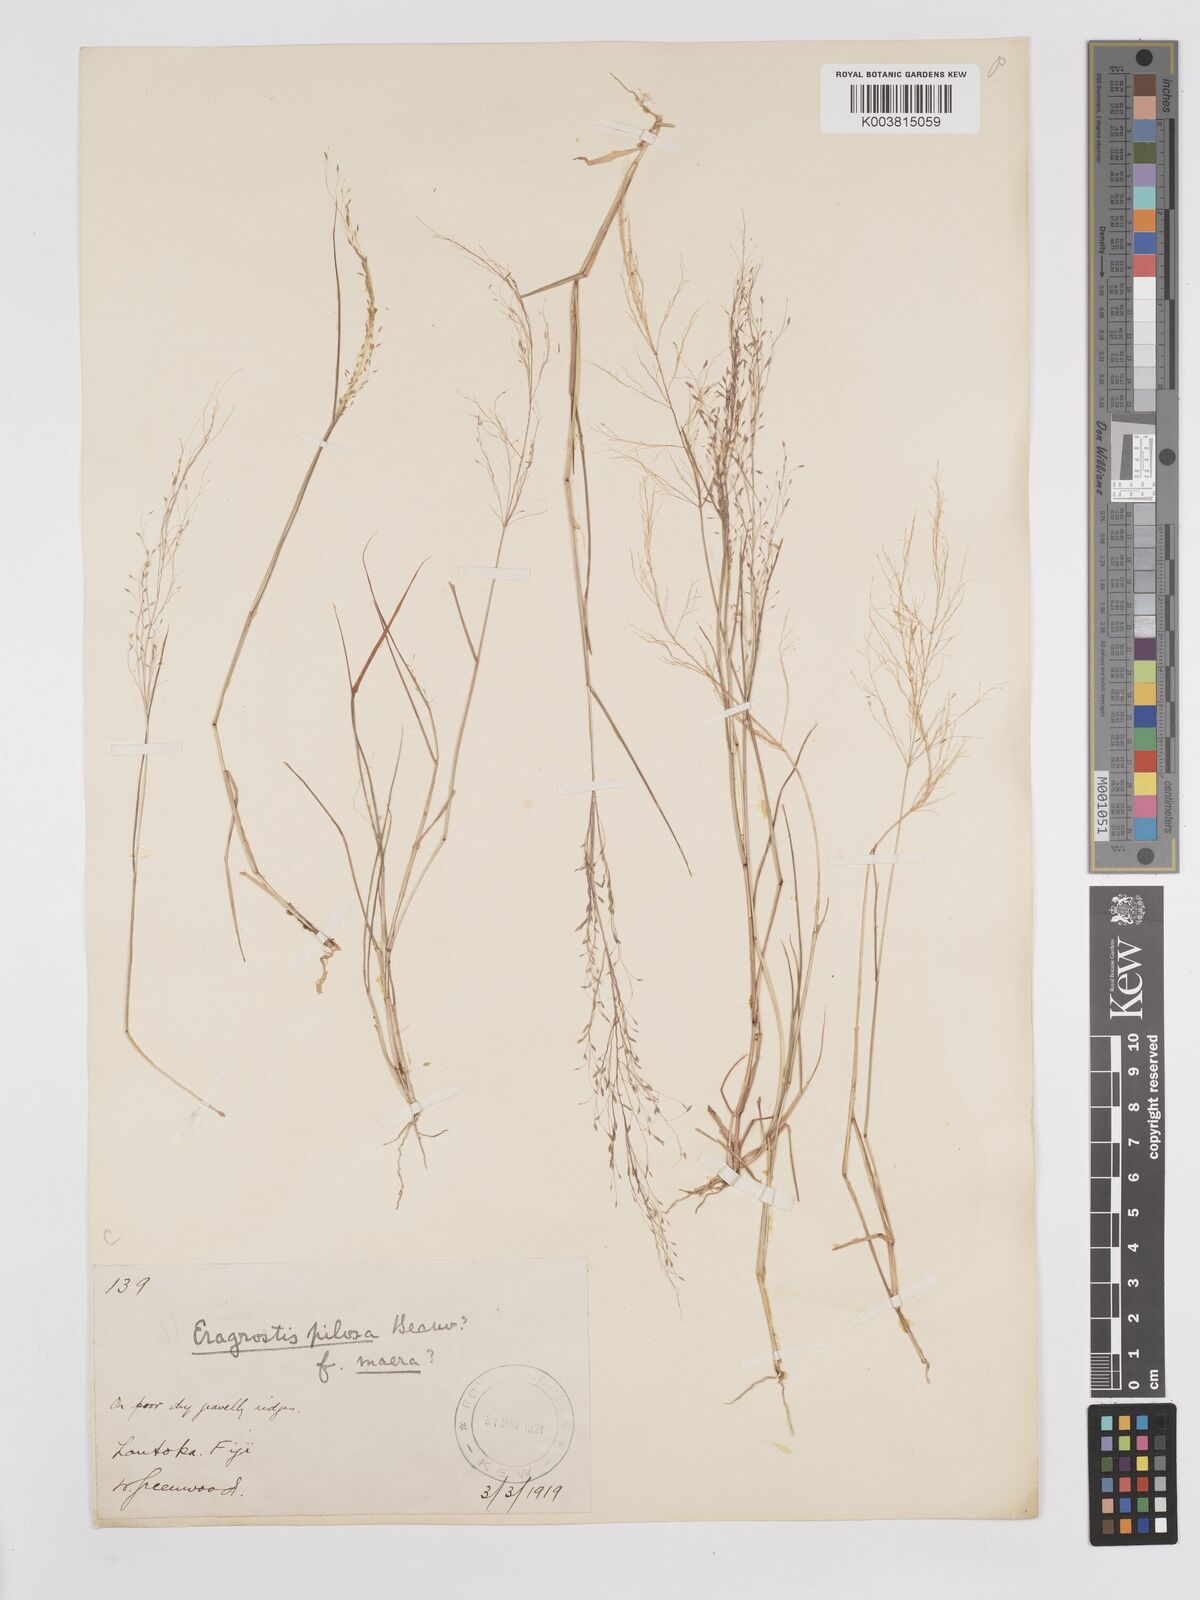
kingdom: Plantae
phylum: Tracheophyta
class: Liliopsida
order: Poales
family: Poaceae
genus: Eragrostis
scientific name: Eragrostis pilosa
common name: Indian lovegrass
